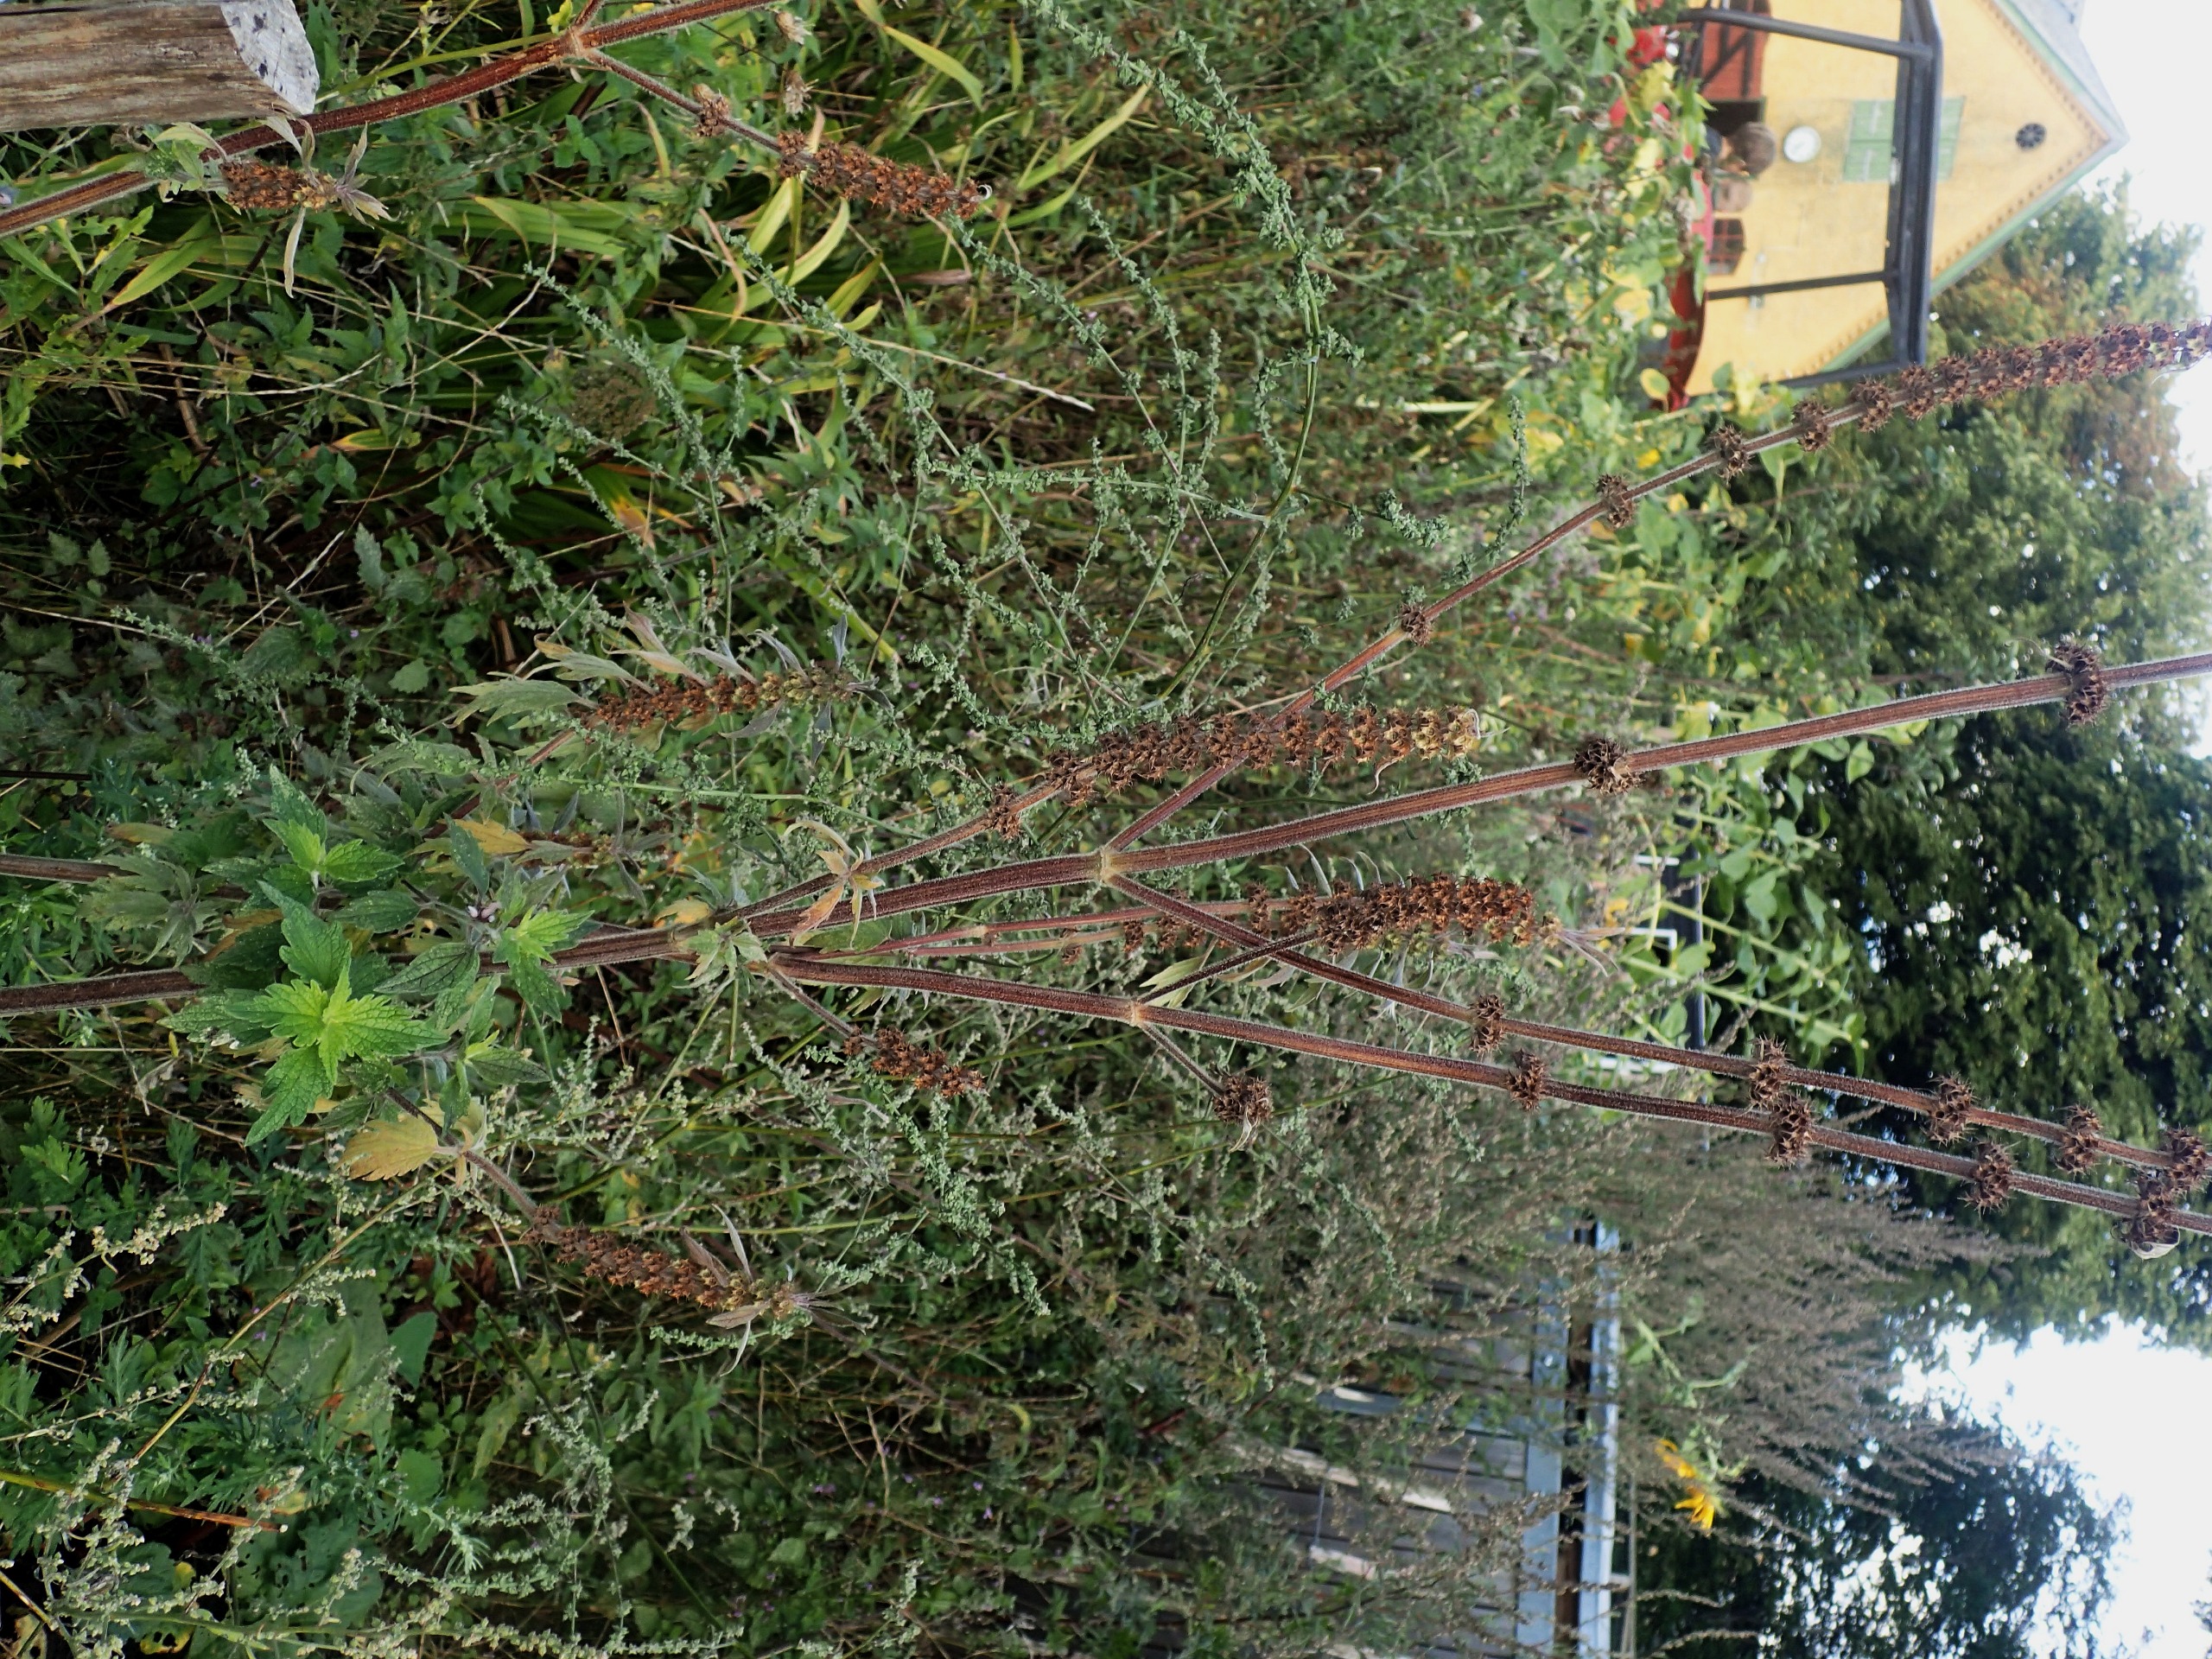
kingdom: Plantae
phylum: Tracheophyta
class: Magnoliopsida
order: Lamiales
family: Lamiaceae
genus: Leonurus
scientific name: Leonurus cardiaca
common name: Hjertespand
